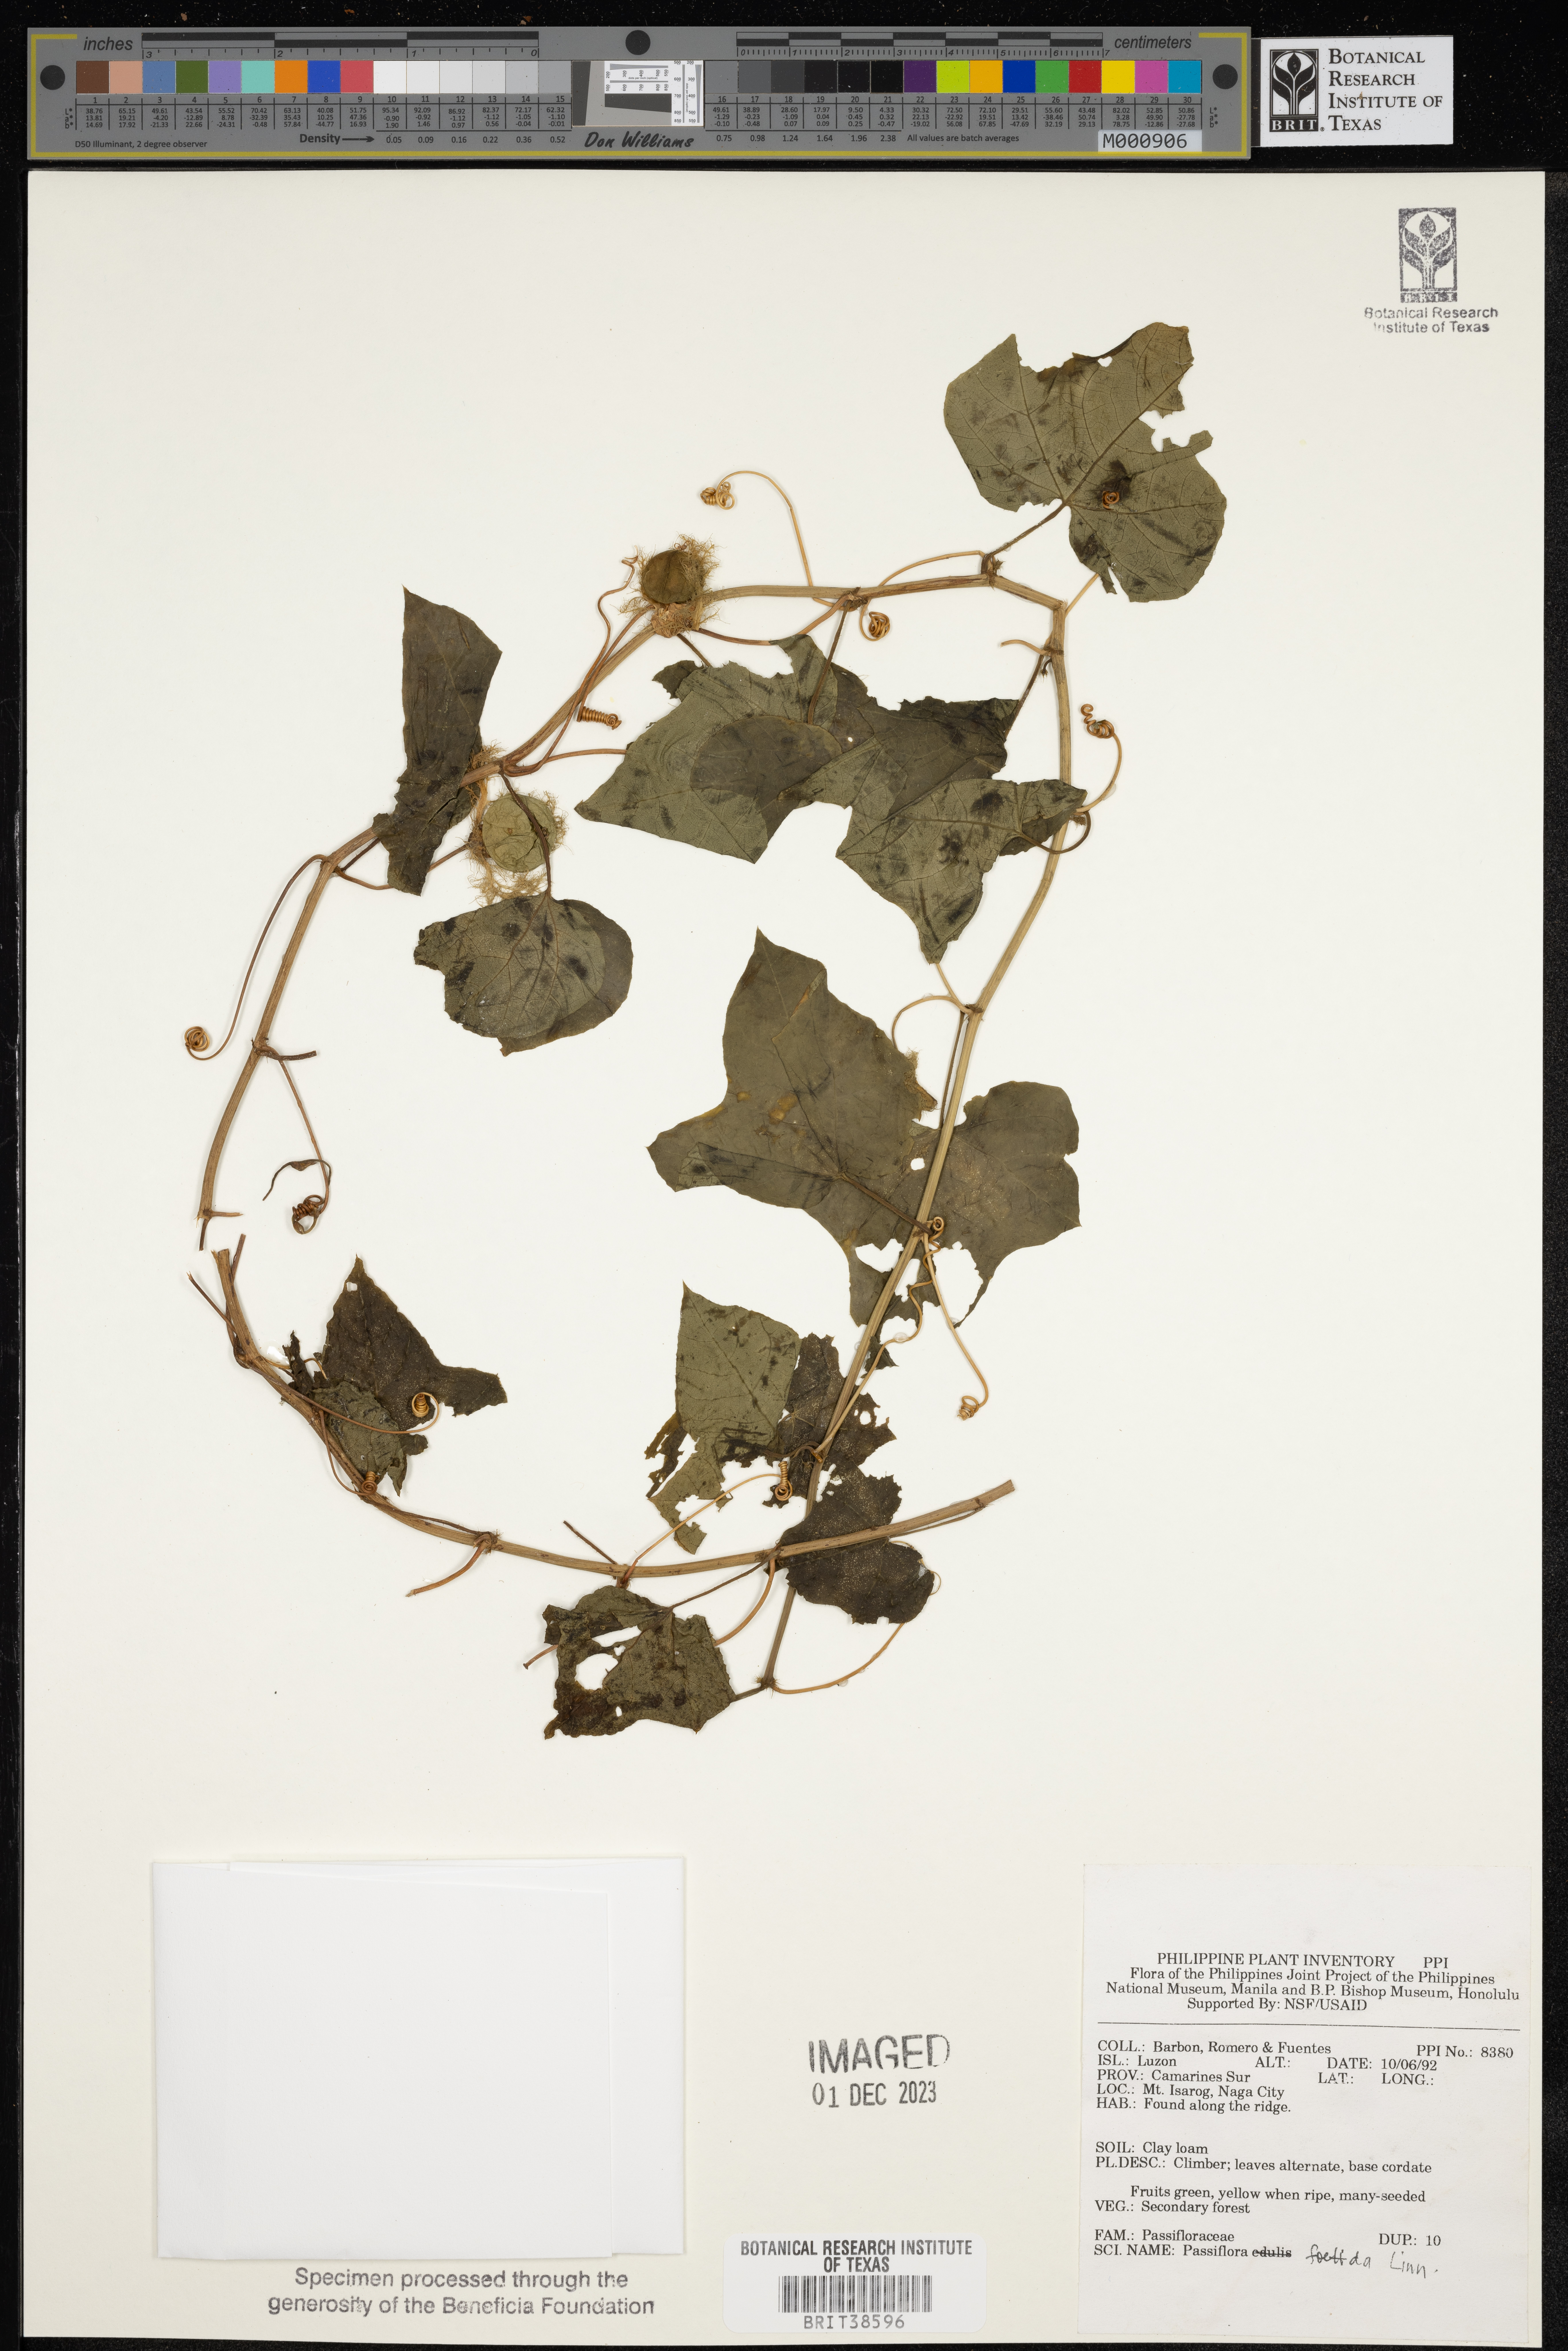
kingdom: Plantae
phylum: Tracheophyta
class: Magnoliopsida
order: Malpighiales
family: Passifloraceae
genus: Passiflora
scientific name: Passiflora foetida
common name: Fetid passionflower
